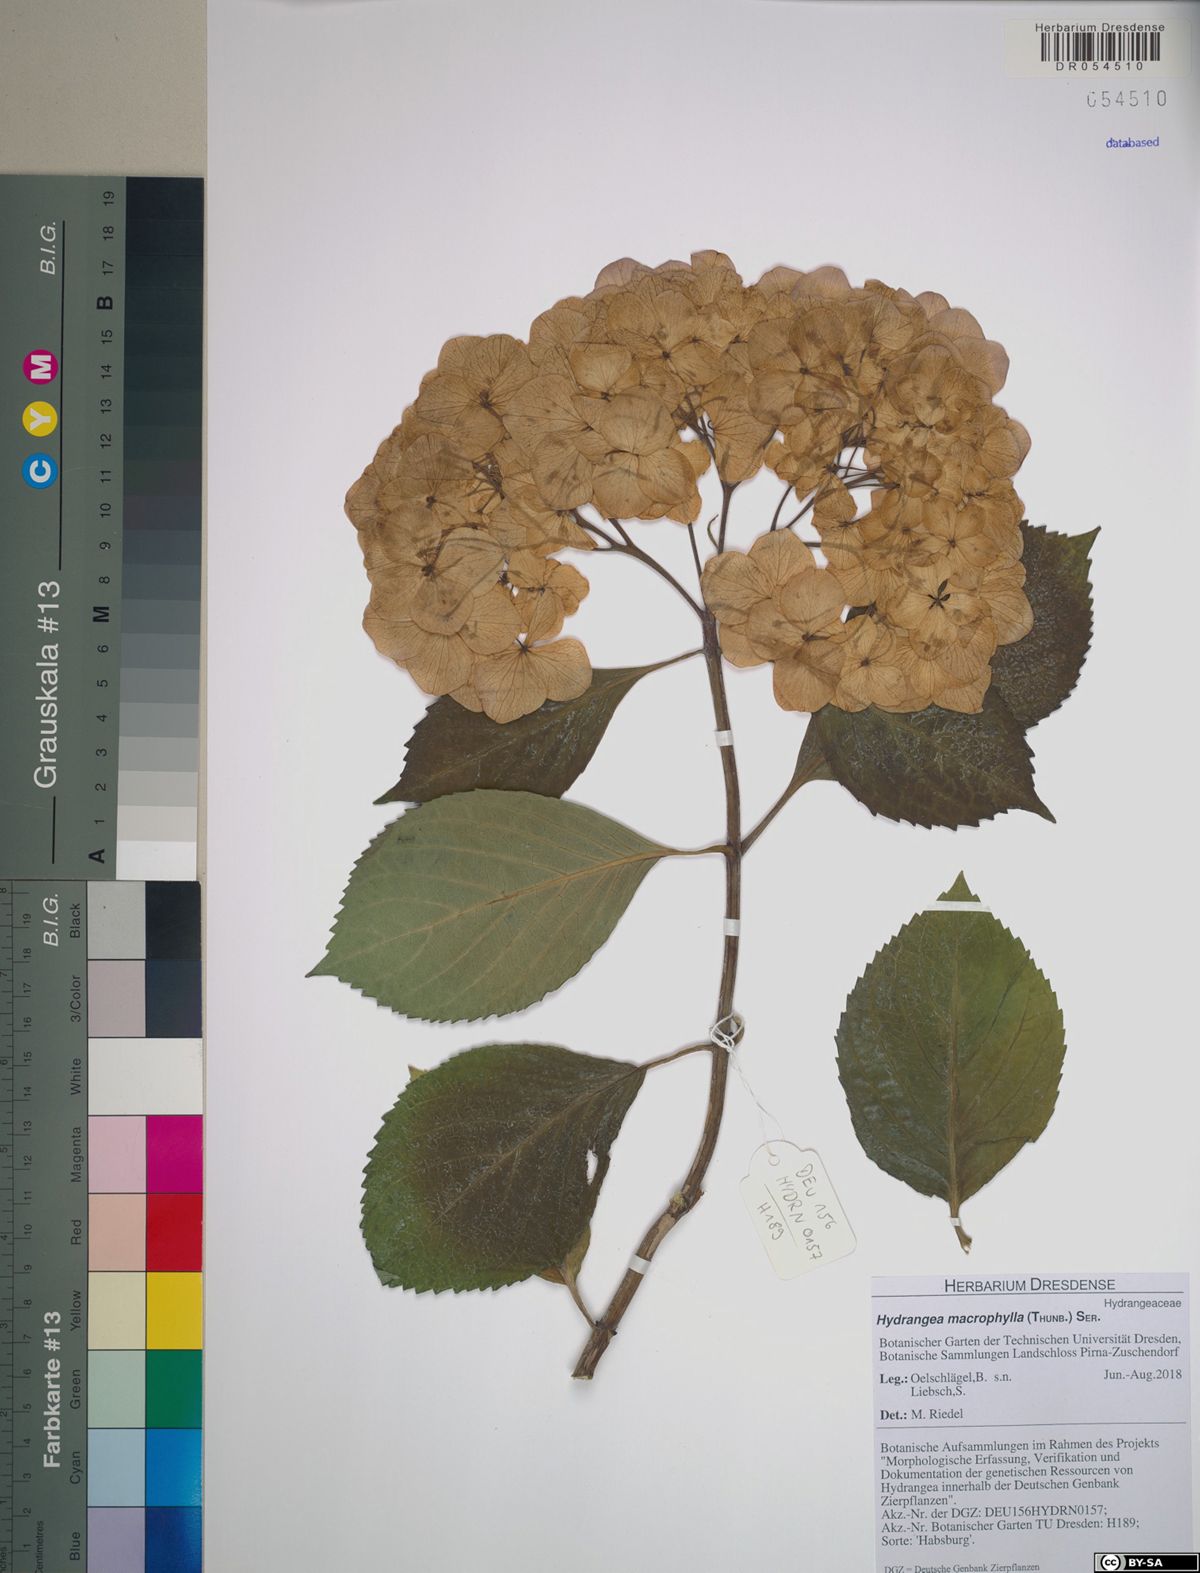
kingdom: Plantae
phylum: Tracheophyta
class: Magnoliopsida
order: Cornales
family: Hydrangeaceae
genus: Hydrangea
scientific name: Hydrangea macrophylla
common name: Hydrangea
